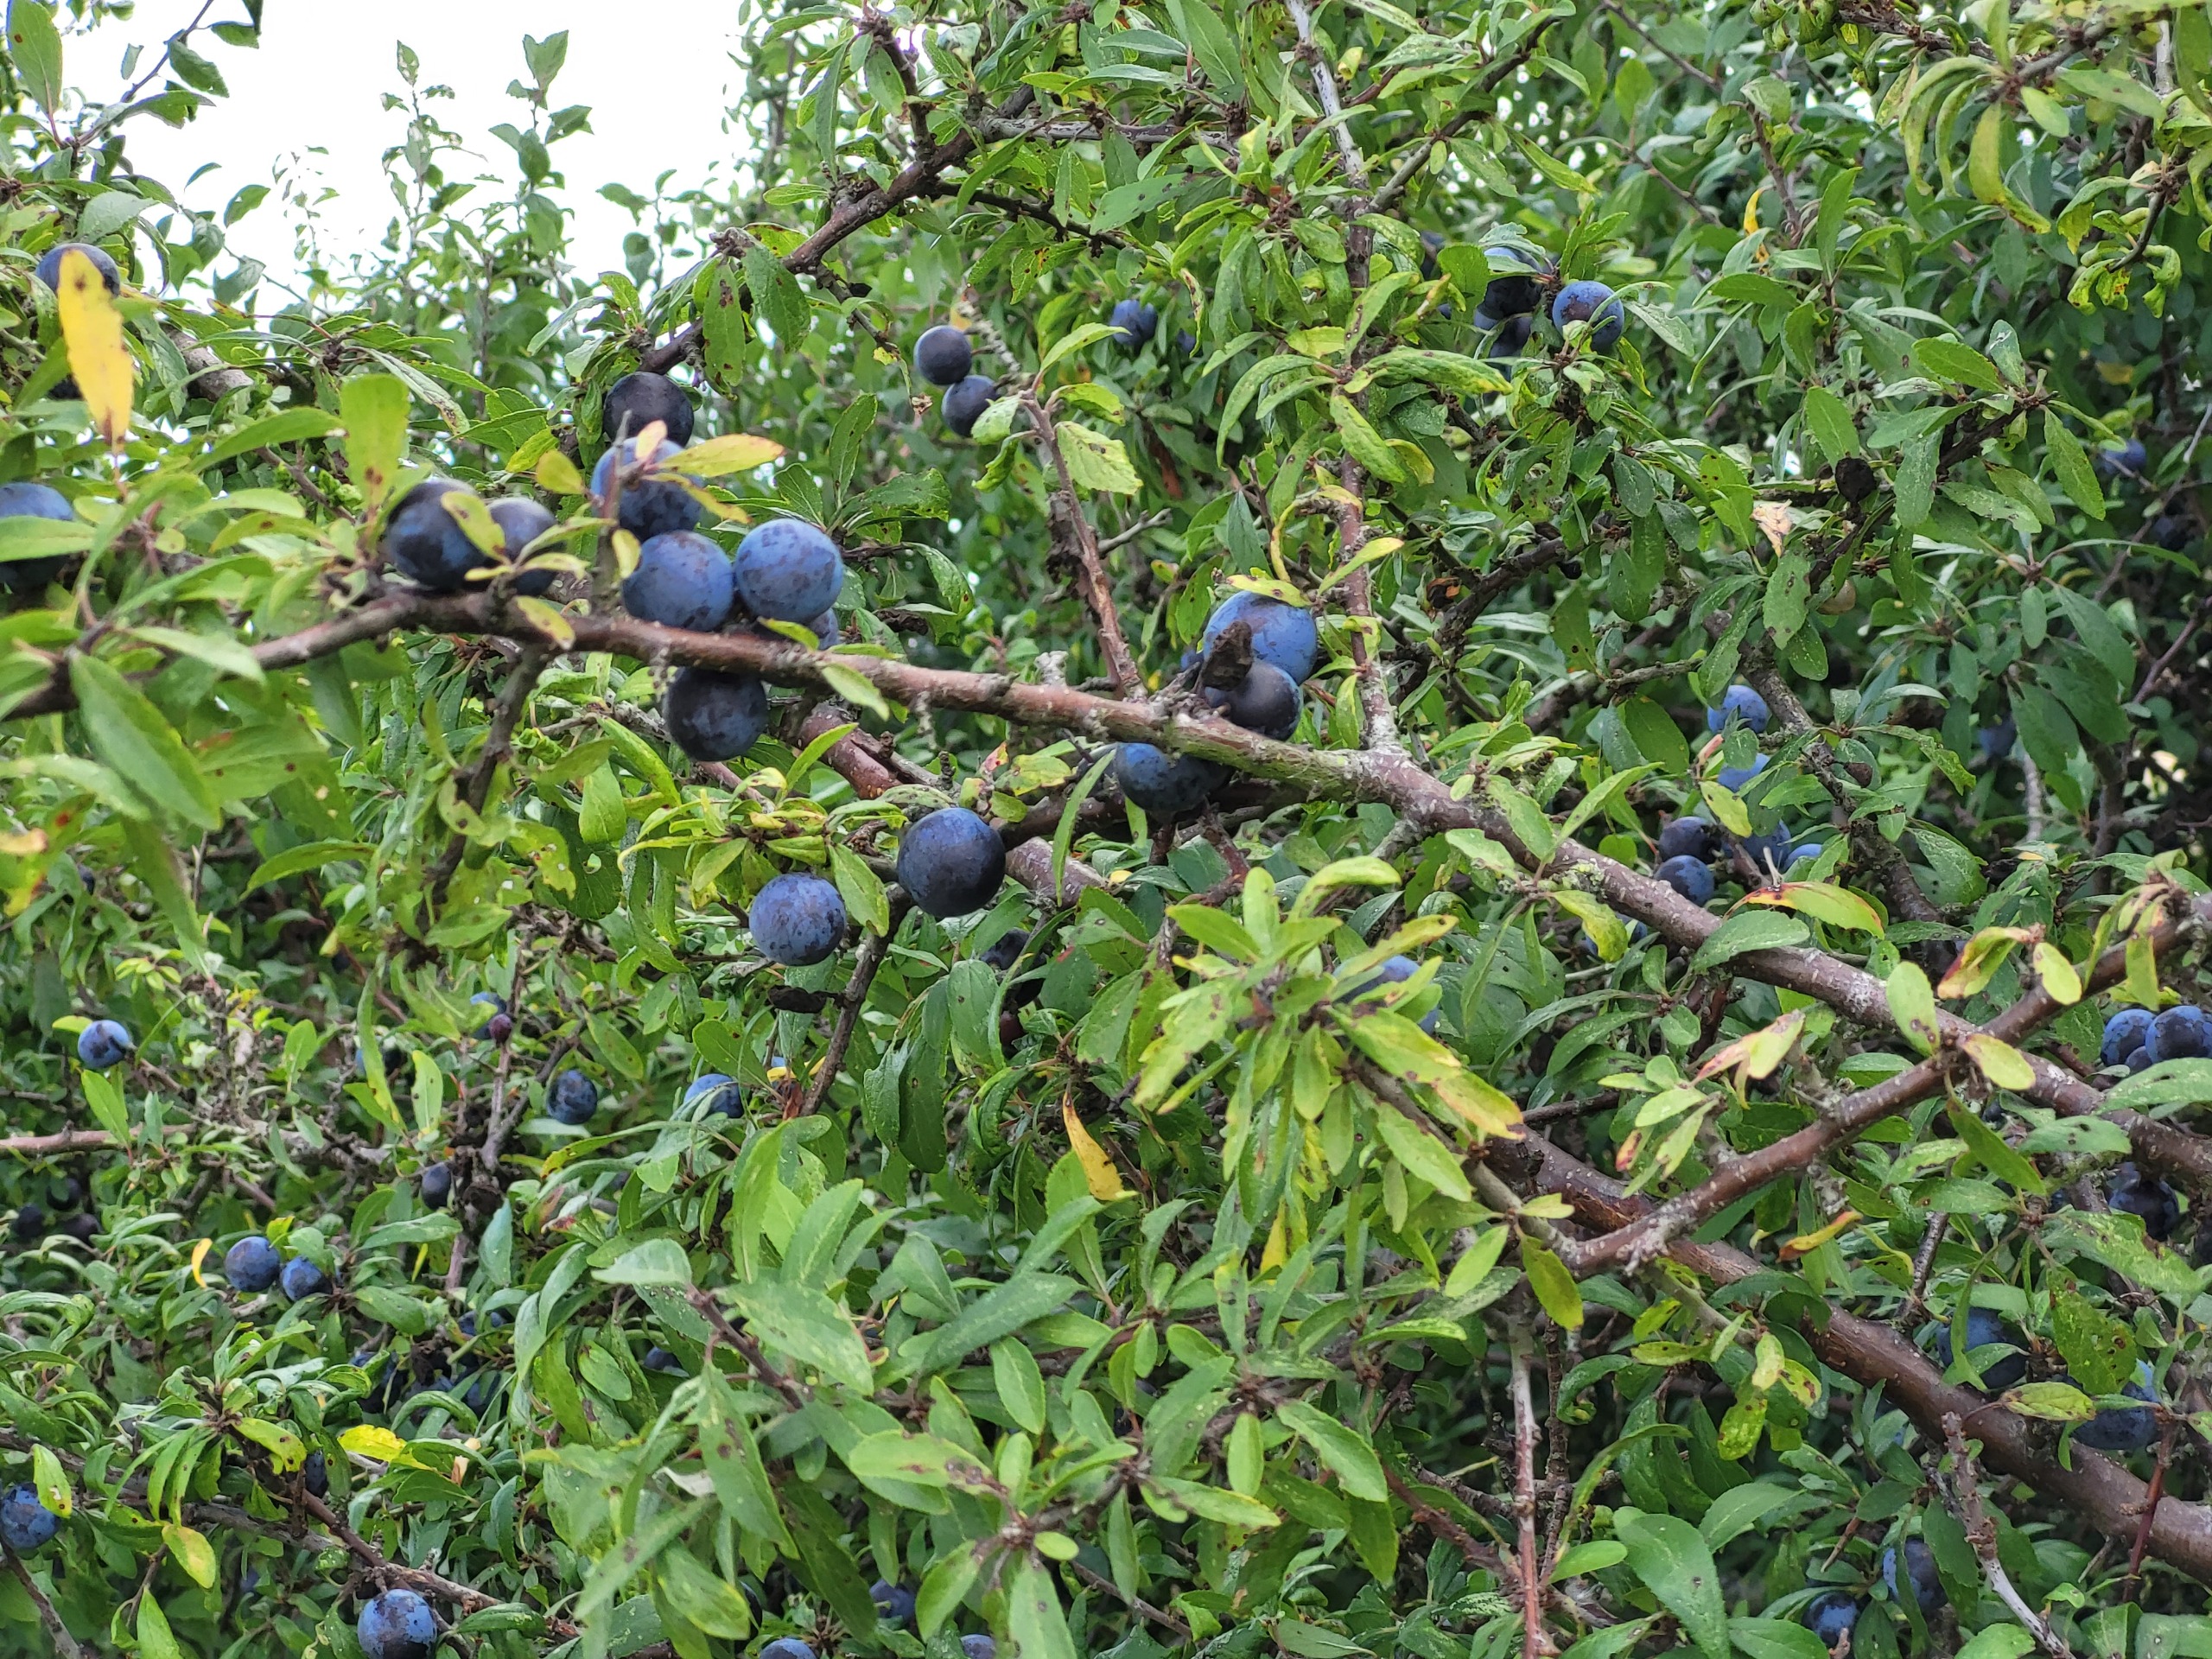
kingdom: Plantae
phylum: Tracheophyta
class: Magnoliopsida
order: Rosales
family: Rosaceae
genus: Prunus
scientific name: Prunus spinosa
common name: Slåen
